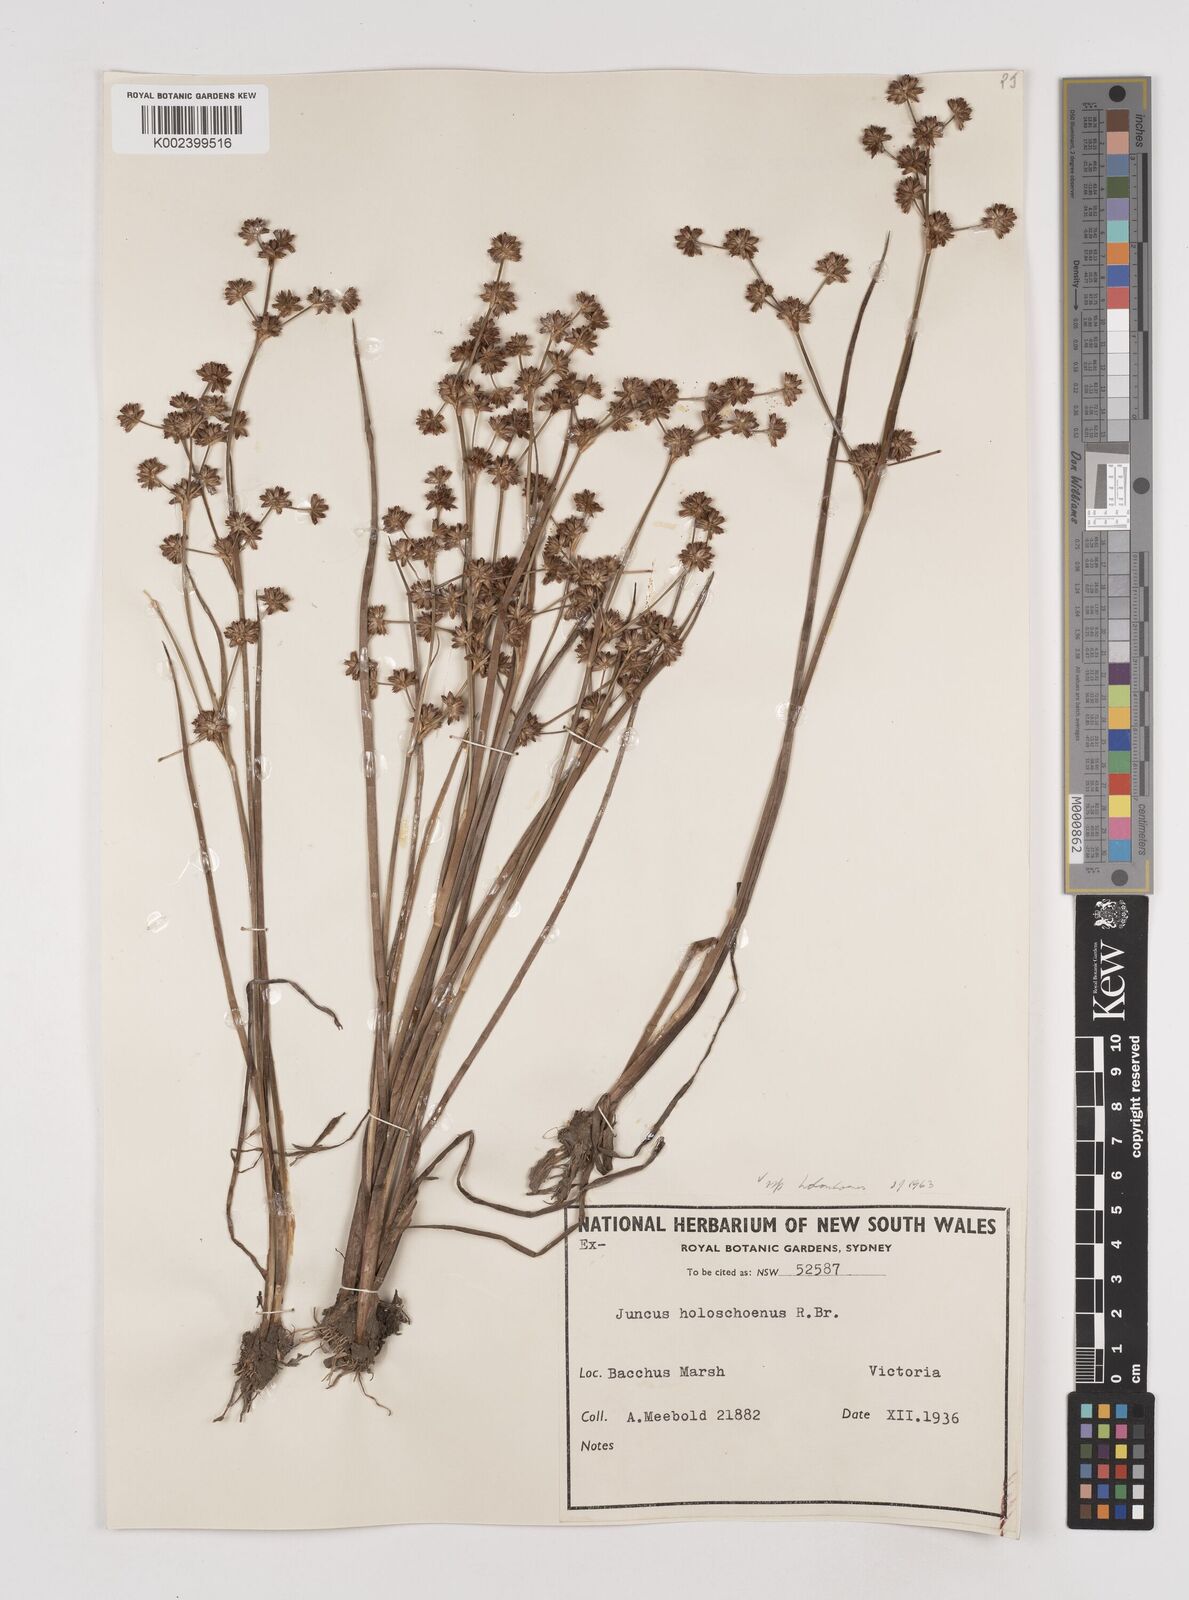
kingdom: Plantae
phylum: Tracheophyta
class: Liliopsida
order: Poales
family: Juncaceae
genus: Juncus
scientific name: Juncus holoschoenus
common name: Joint-leaf rush
